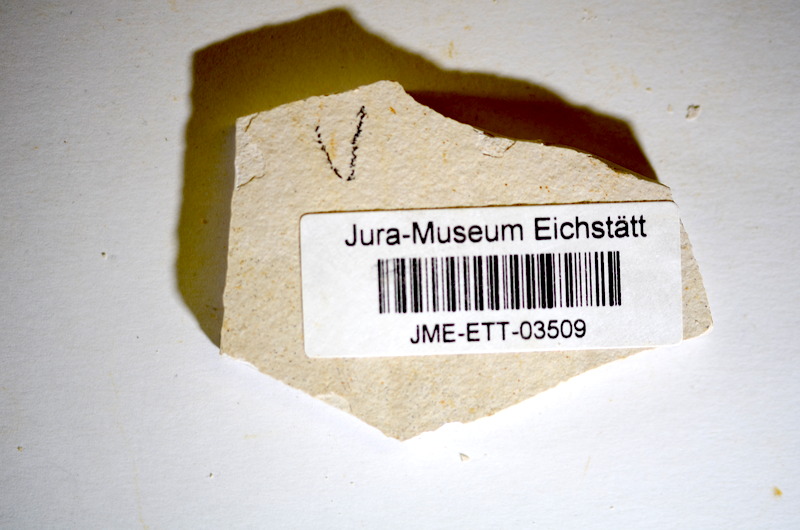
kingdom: Animalia
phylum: Chordata
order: Salmoniformes
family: Orthogonikleithridae
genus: Orthogonikleithrus
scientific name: Orthogonikleithrus hoelli
